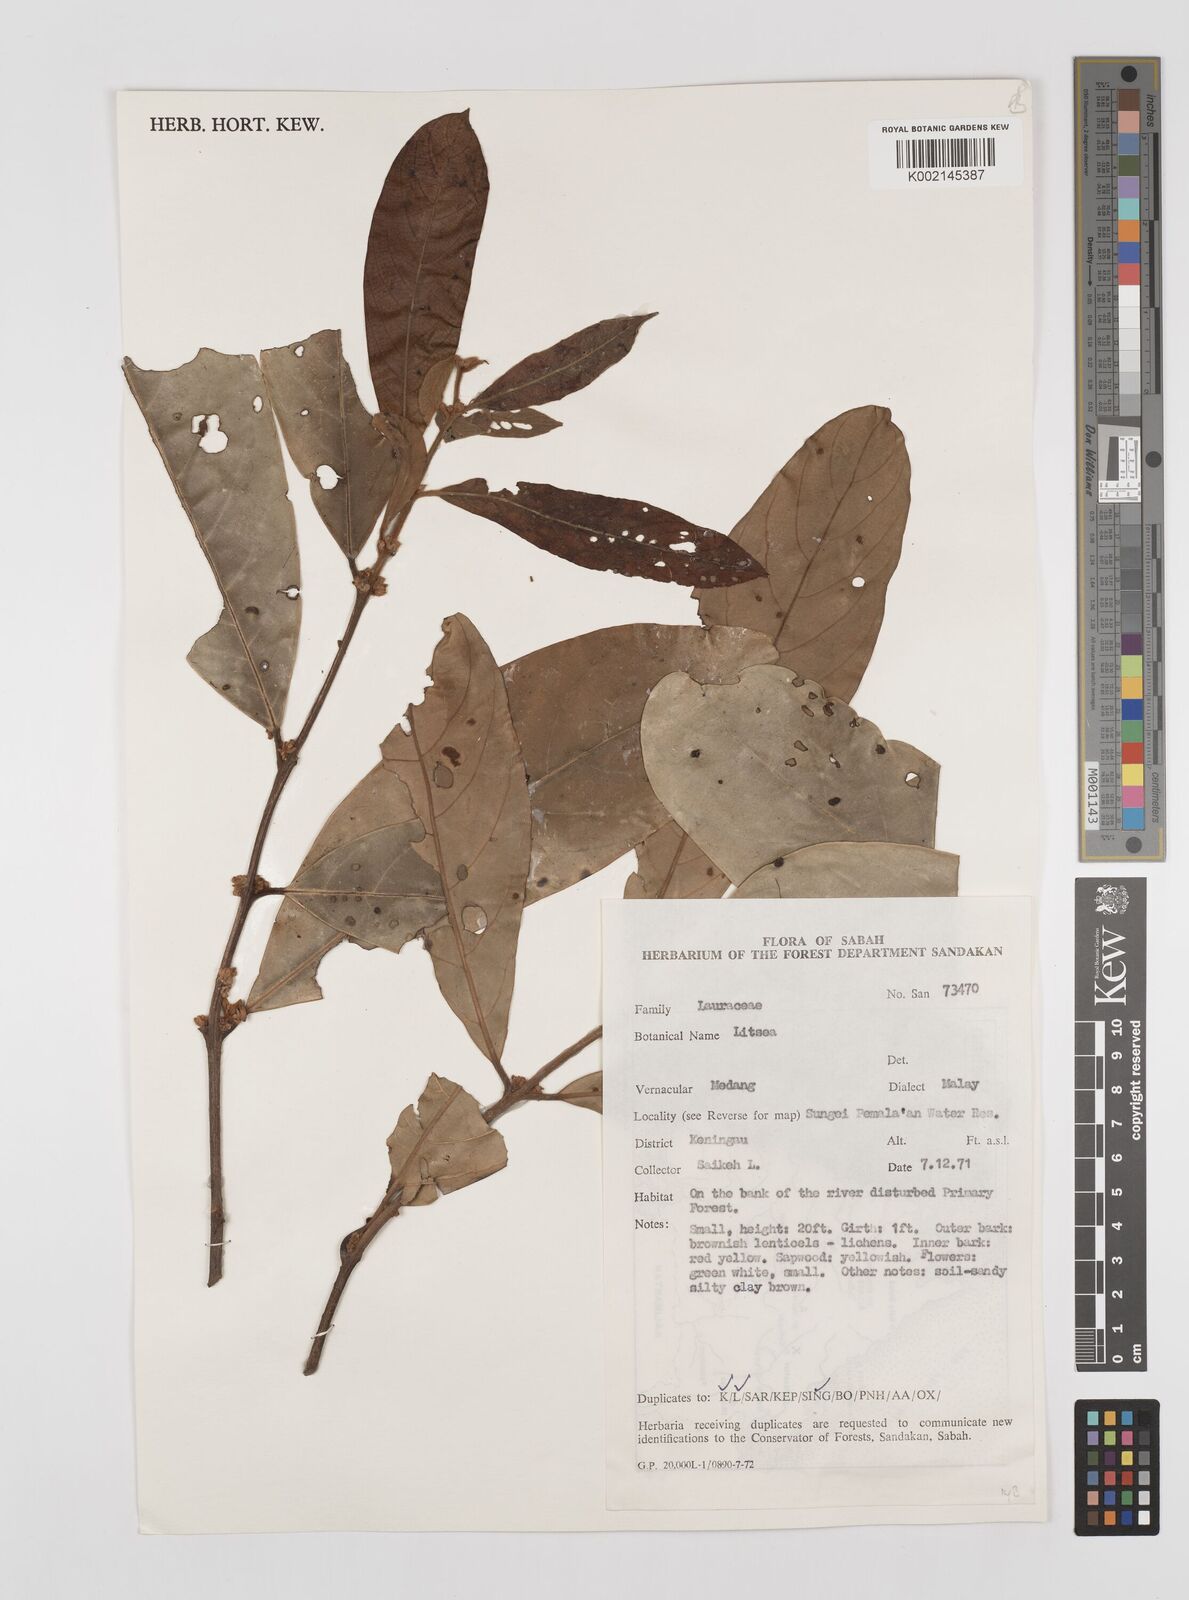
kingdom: Plantae
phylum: Tracheophyta
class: Magnoliopsida
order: Laurales
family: Lauraceae
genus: Litsea
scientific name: Litsea
